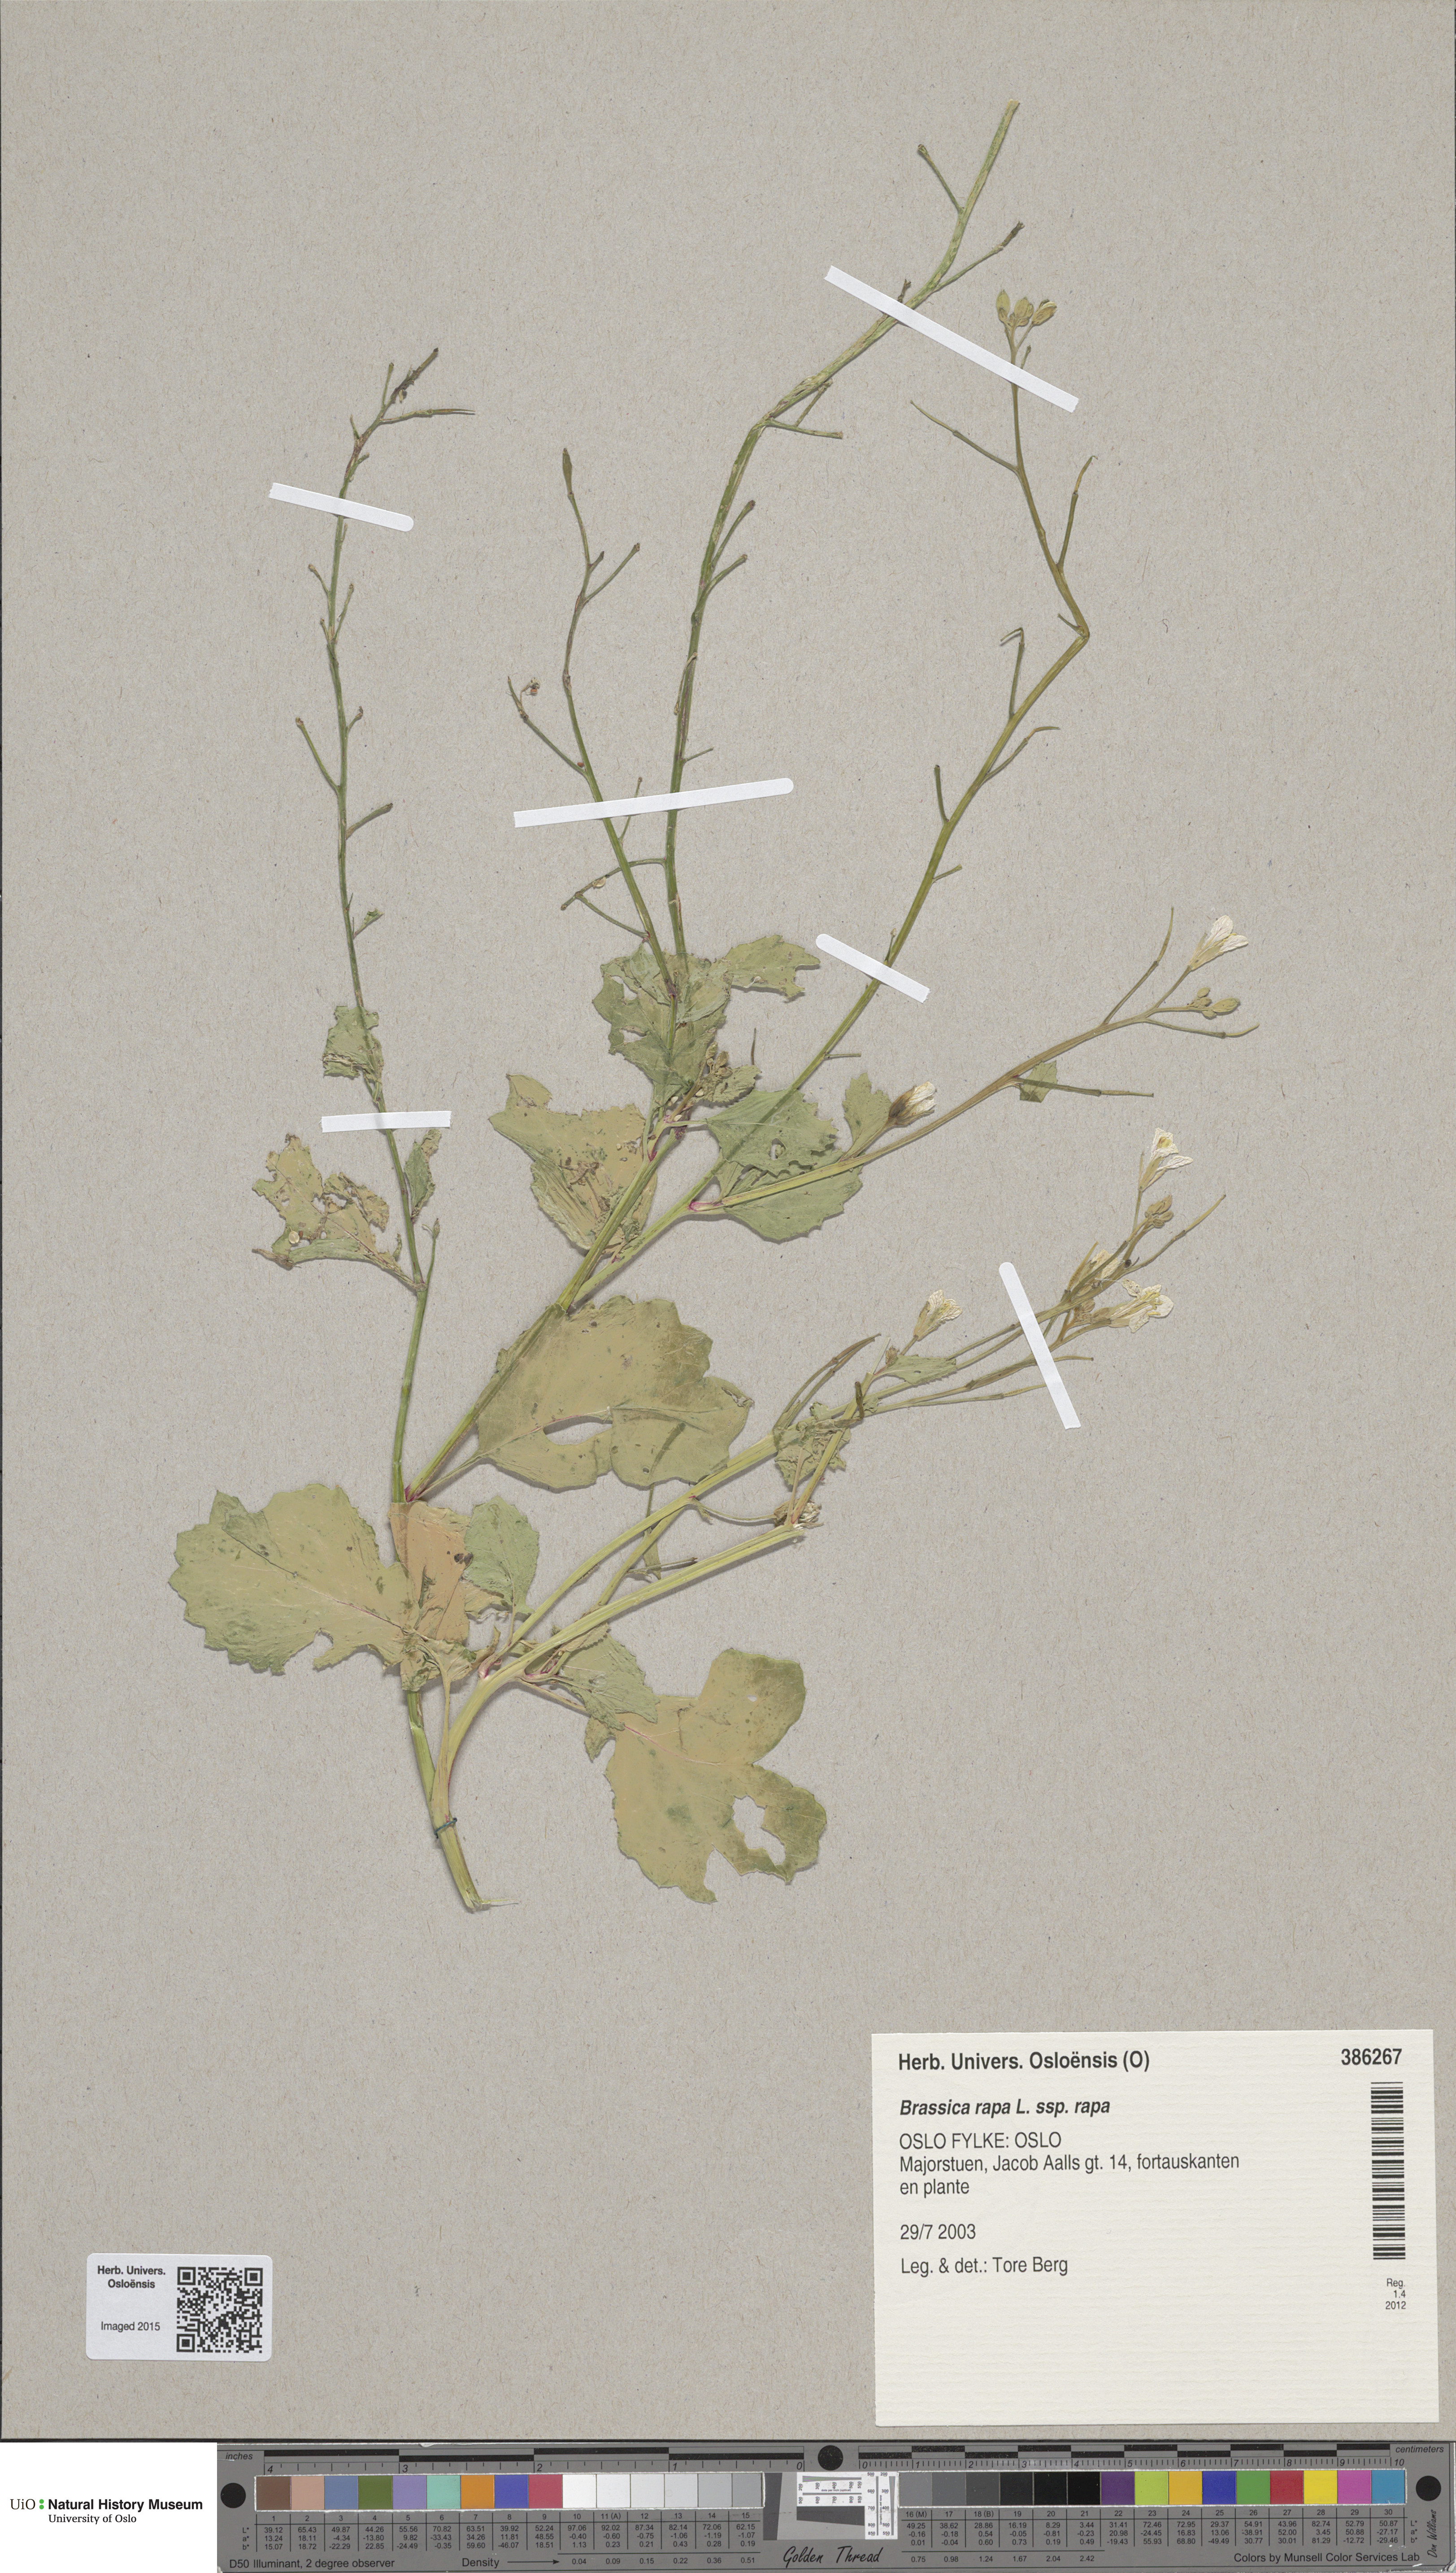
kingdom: Plantae
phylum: Tracheophyta
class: Magnoliopsida
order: Brassicales
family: Brassicaceae
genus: Brassica
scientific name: Brassica rapa
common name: Field mustard
